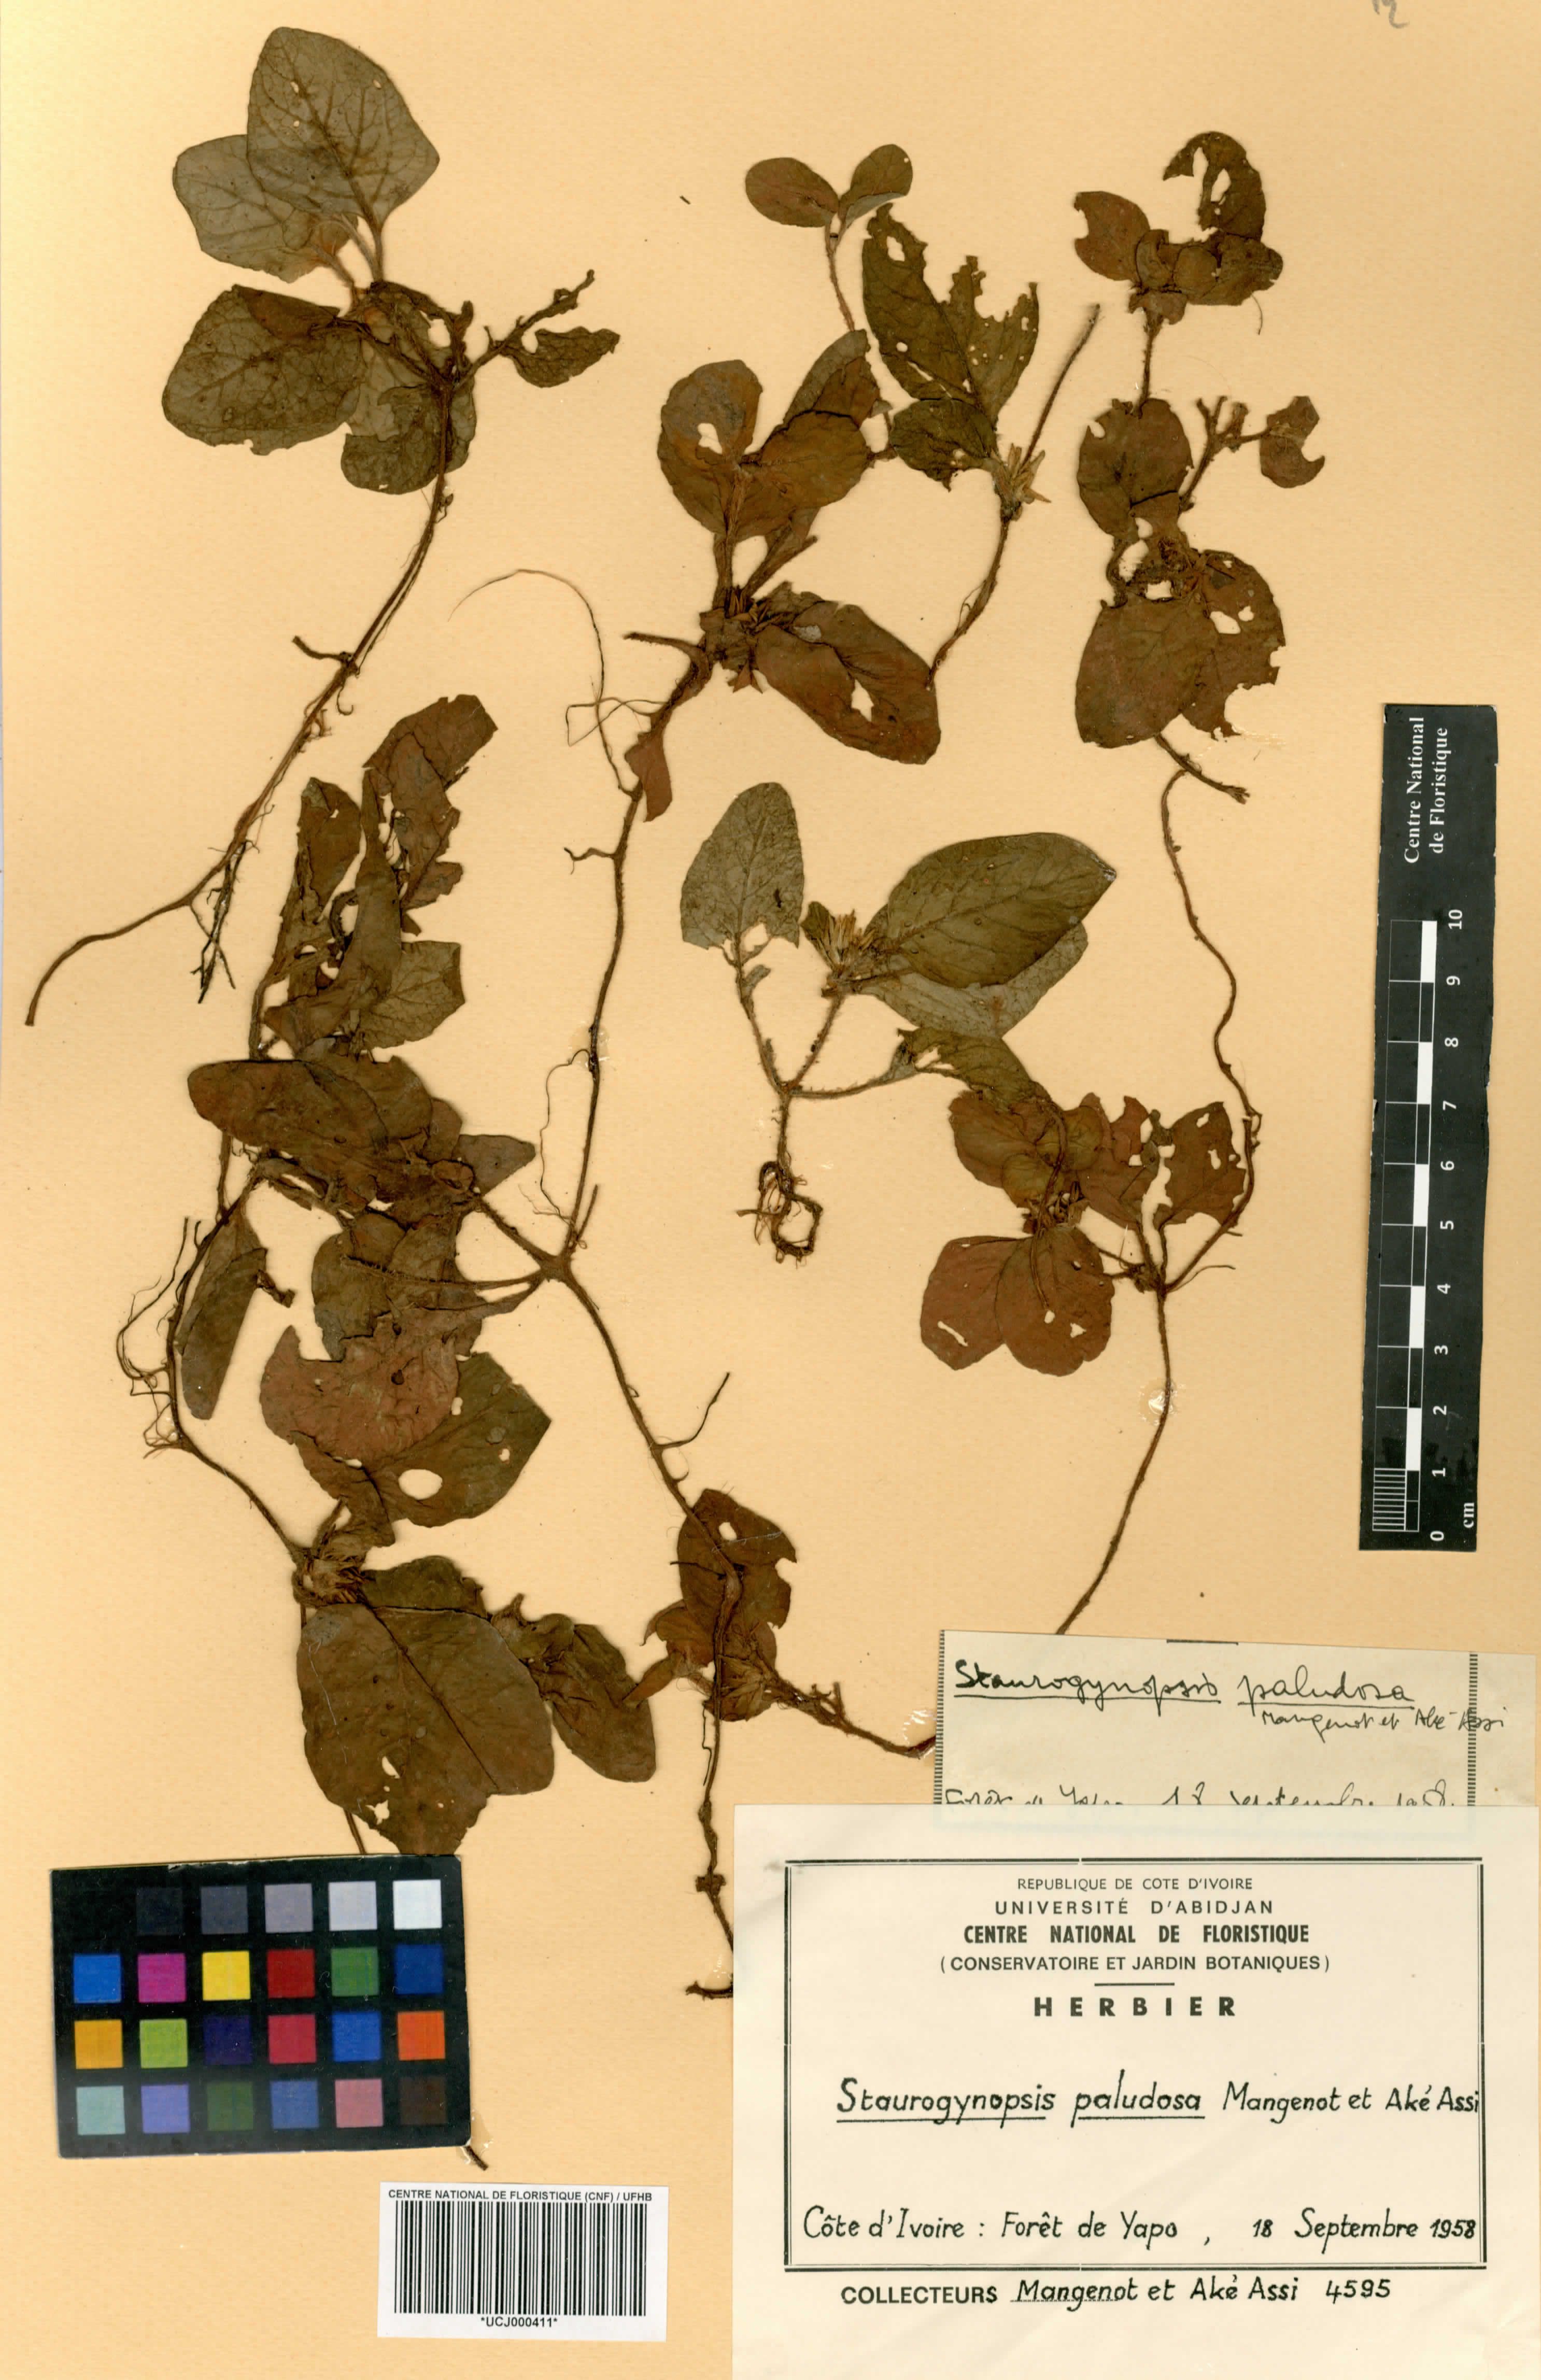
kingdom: Plantae
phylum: Tracheophyta
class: Magnoliopsida
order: Lamiales
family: Acanthaceae
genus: Staurogyne
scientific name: Staurogyne capitata
